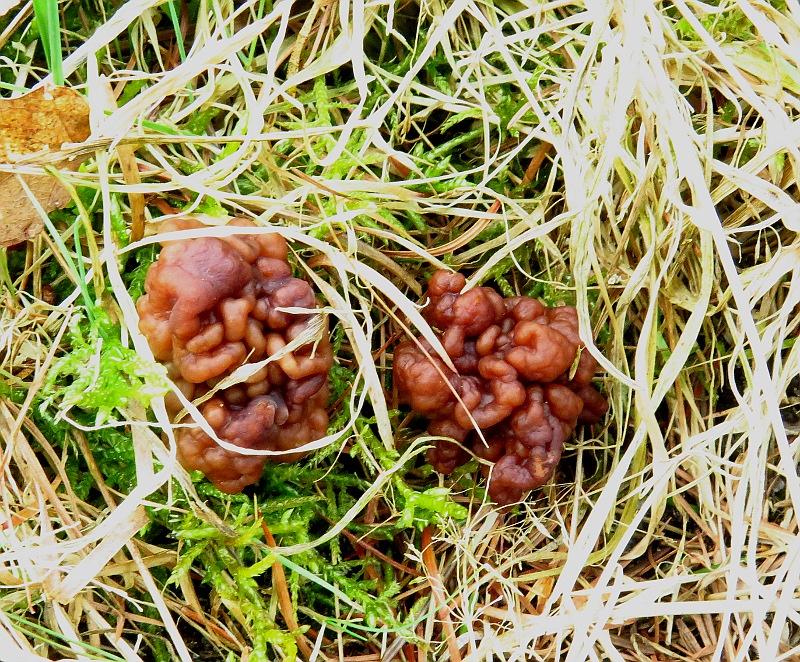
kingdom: Fungi
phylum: Ascomycota
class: Pezizomycetes
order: Pezizales
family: Discinaceae
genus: Gyromitra
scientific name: Gyromitra esculenta
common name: ægte stenmorkel
